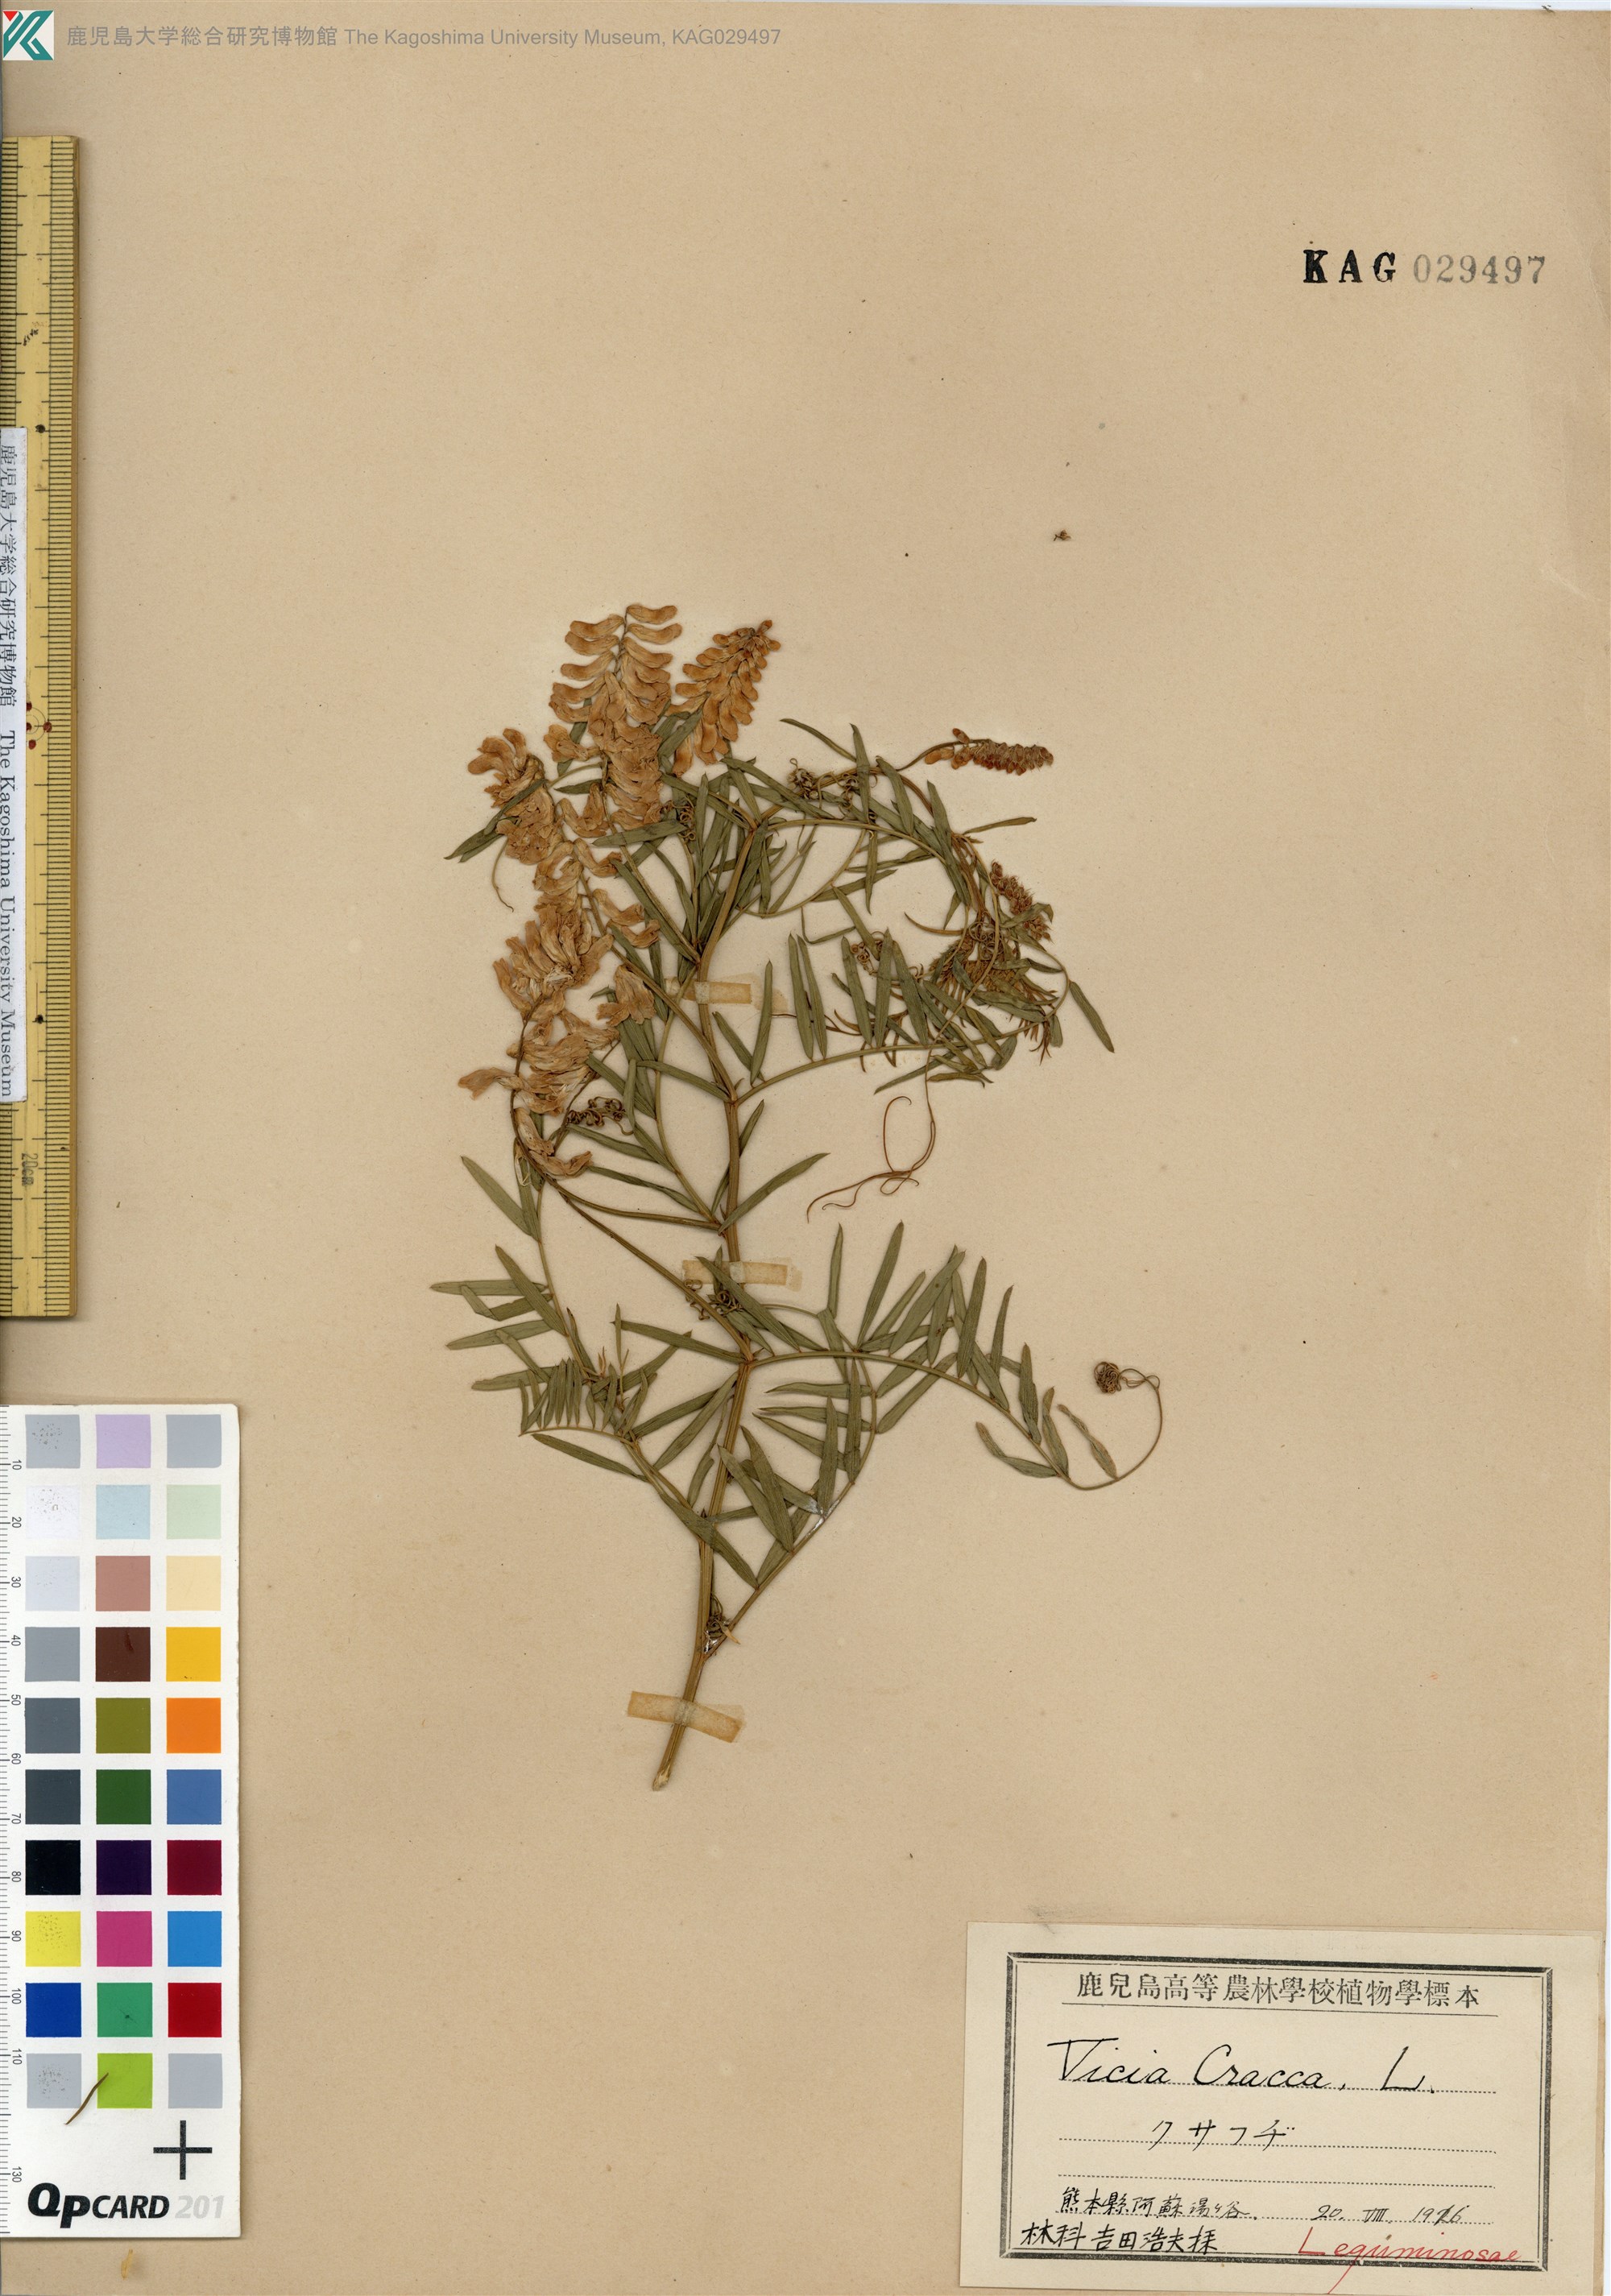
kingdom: Plantae
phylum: Tracheophyta
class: Magnoliopsida
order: Fabales
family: Fabaceae
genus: Vicia
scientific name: Vicia cracca
